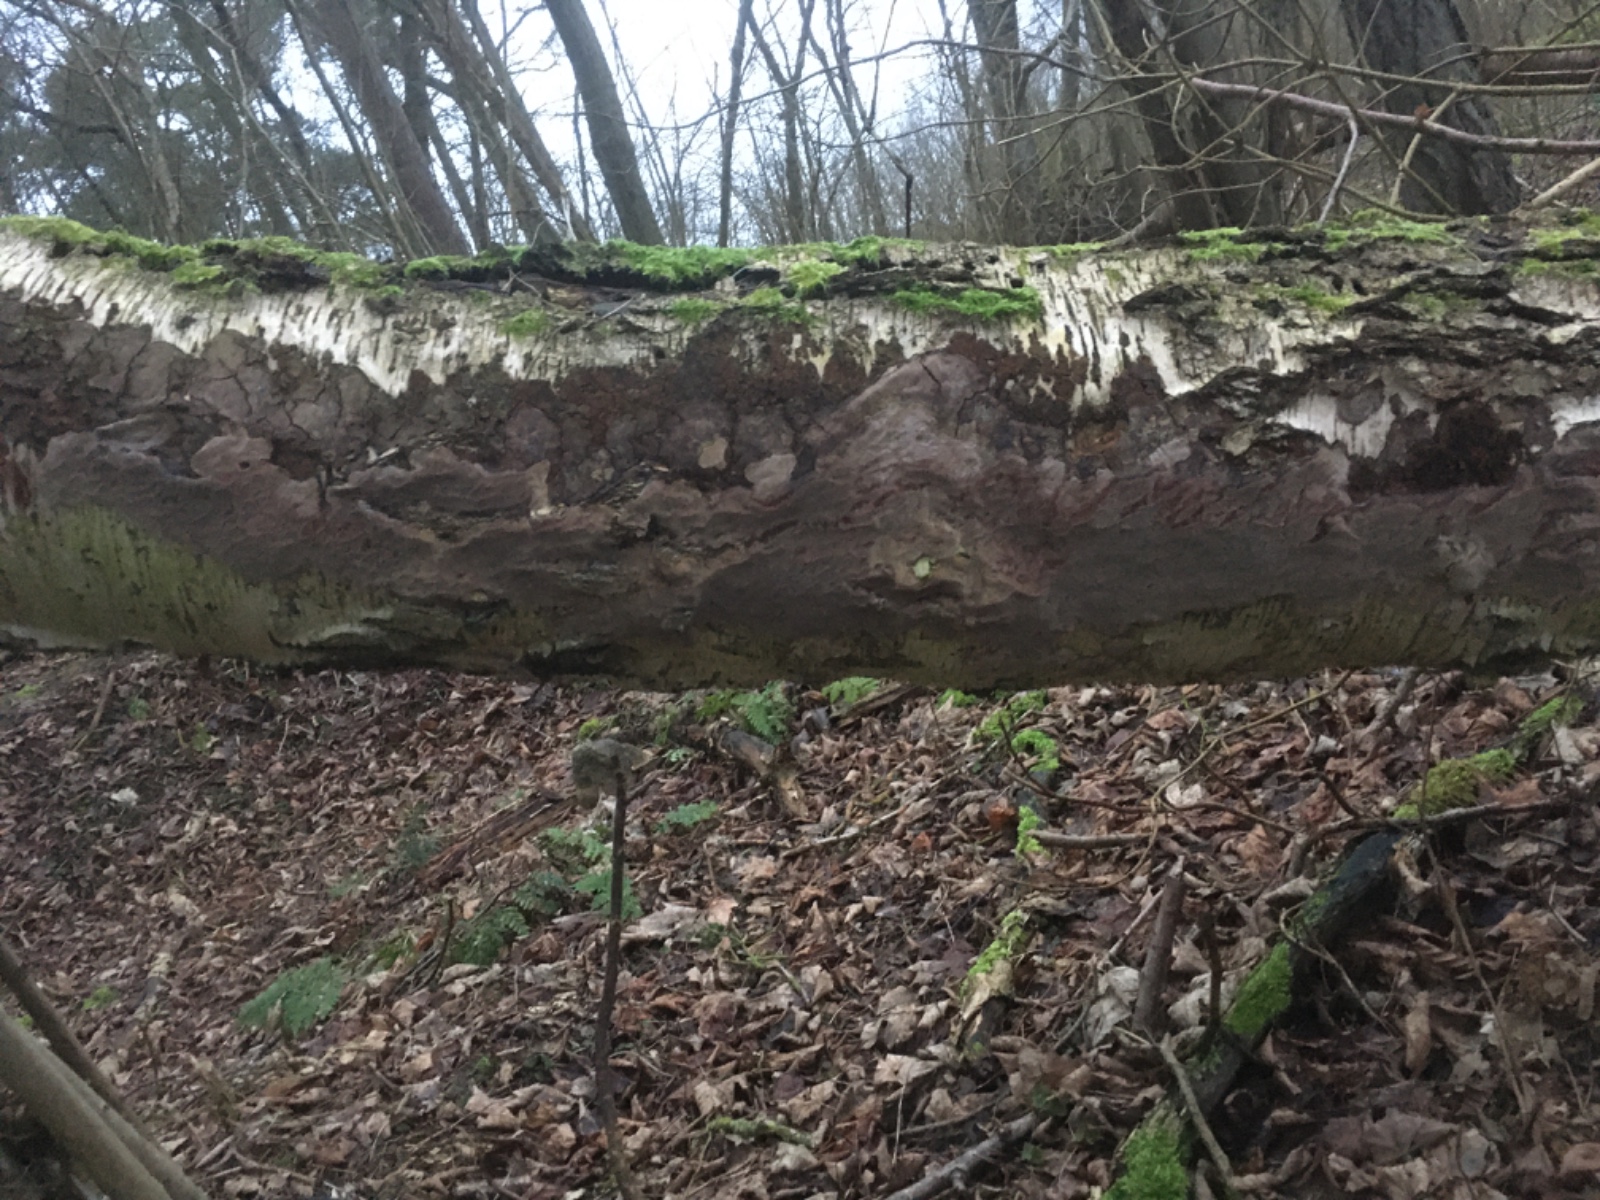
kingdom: Fungi
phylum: Basidiomycota
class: Agaricomycetes
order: Hymenochaetales
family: Hymenochaetaceae
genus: Phellinus
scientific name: Phellinus laevigatus
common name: glat ildporesvamp
